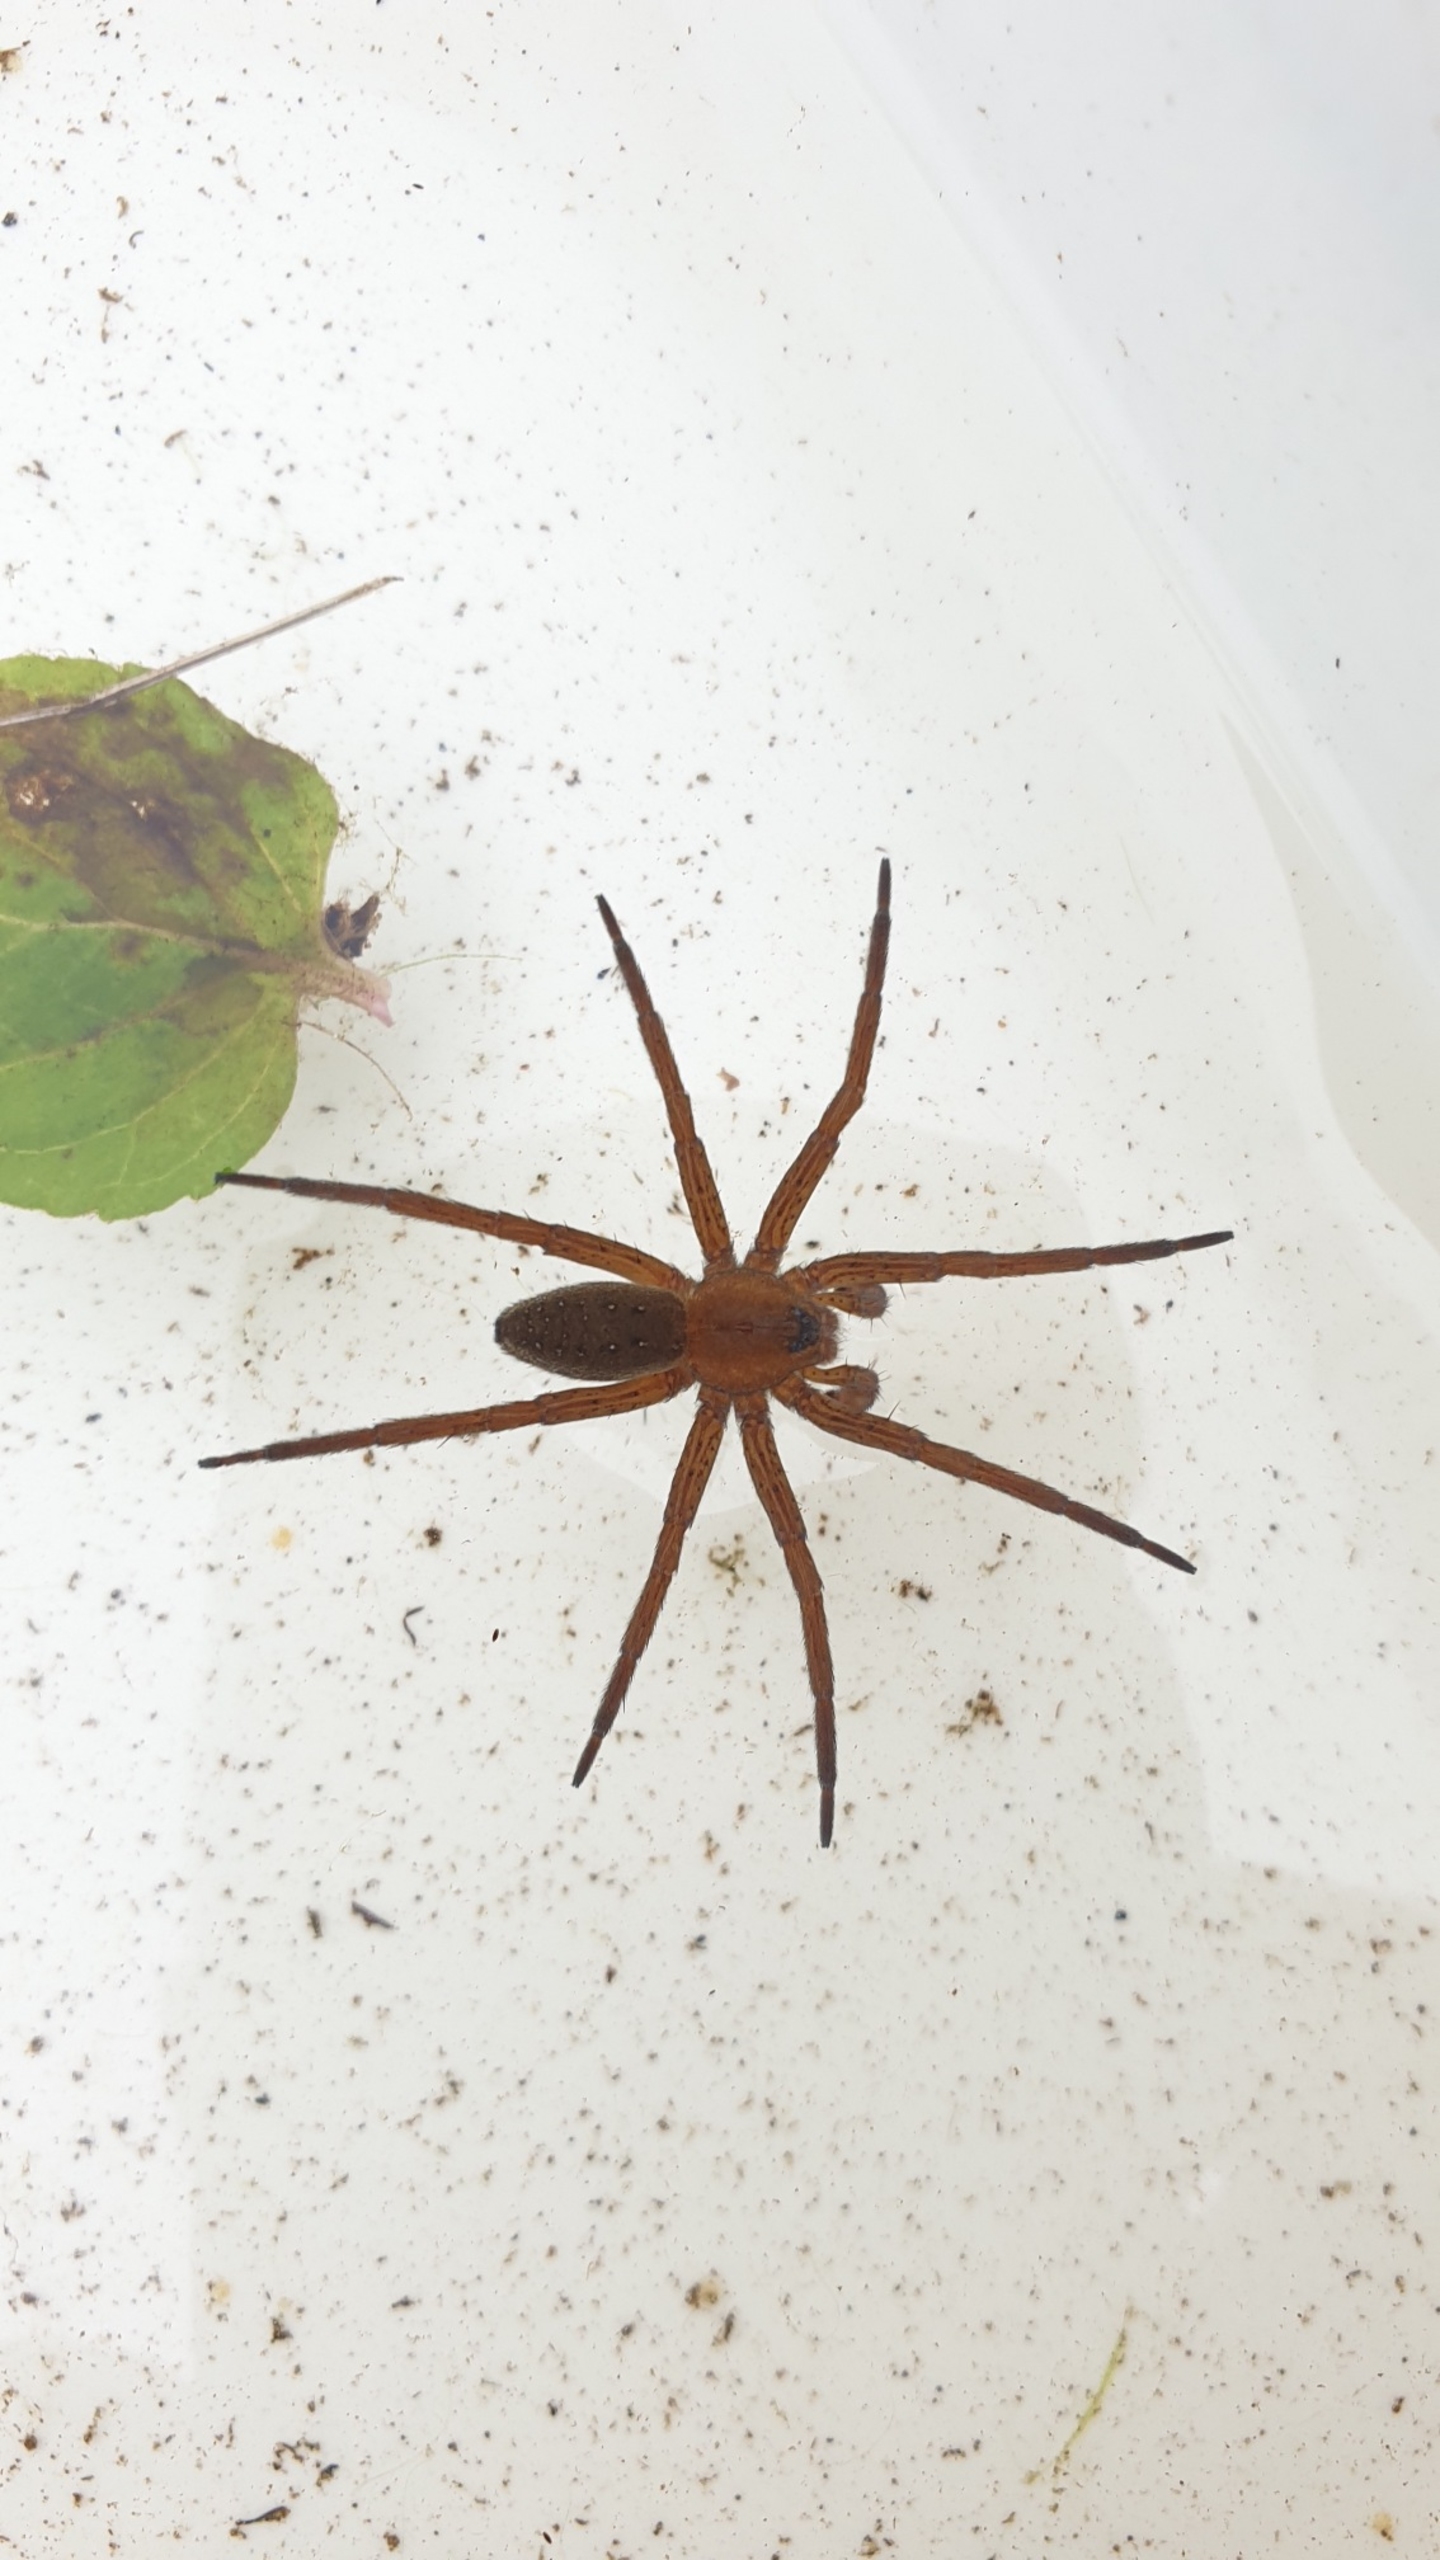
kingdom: Animalia
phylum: Arthropoda
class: Arachnida
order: Araneae
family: Pisauridae
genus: Dolomedes
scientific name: Dolomedes
